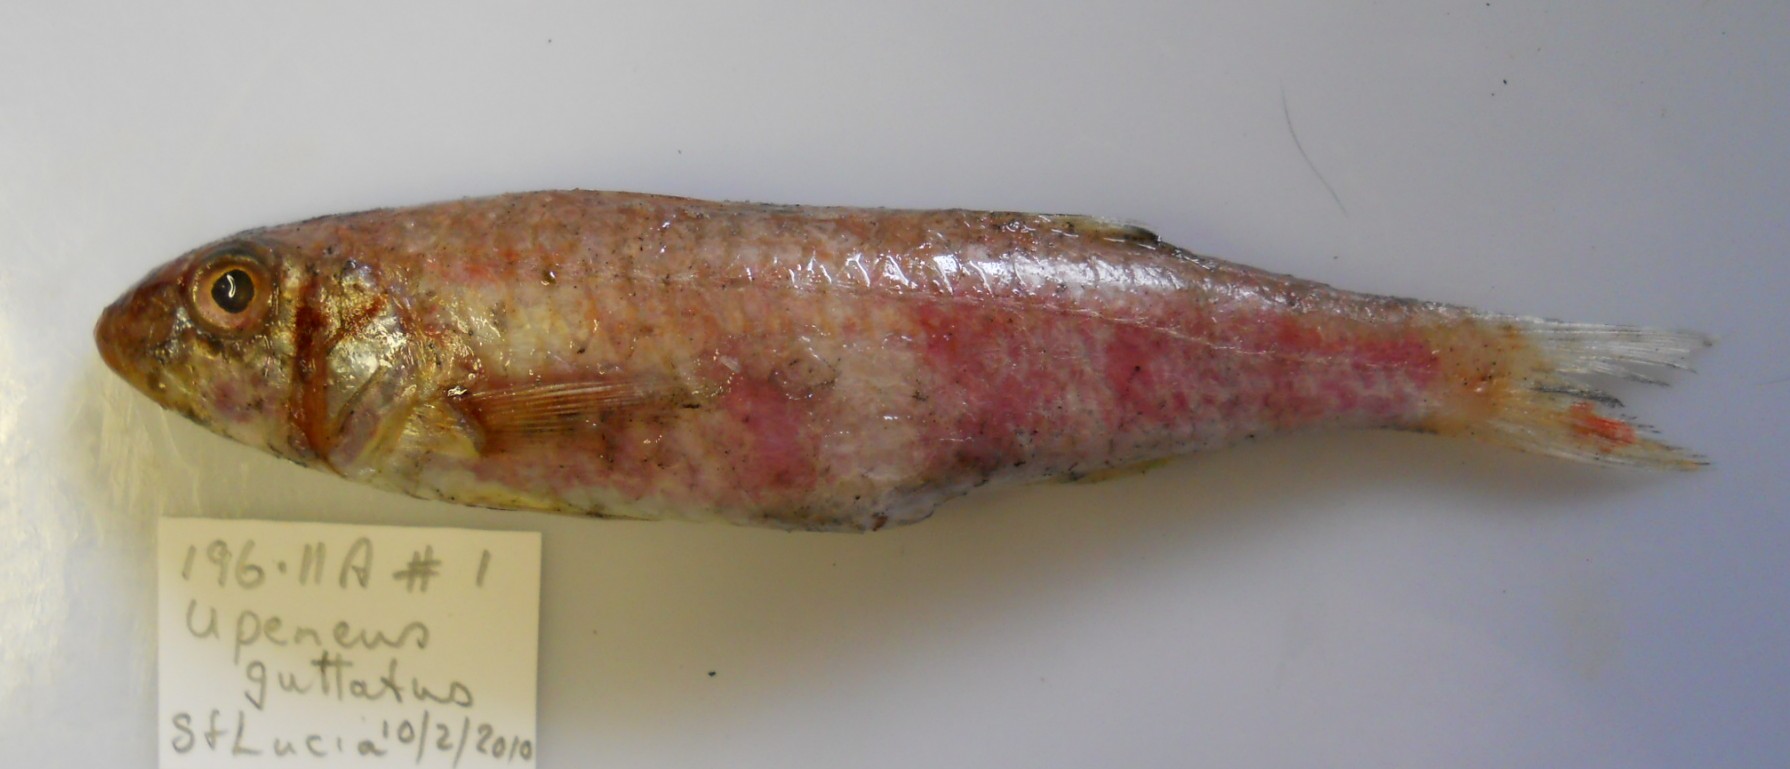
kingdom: Animalia
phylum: Chordata
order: Perciformes
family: Mullidae
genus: Upeneus
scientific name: Upeneus floros
